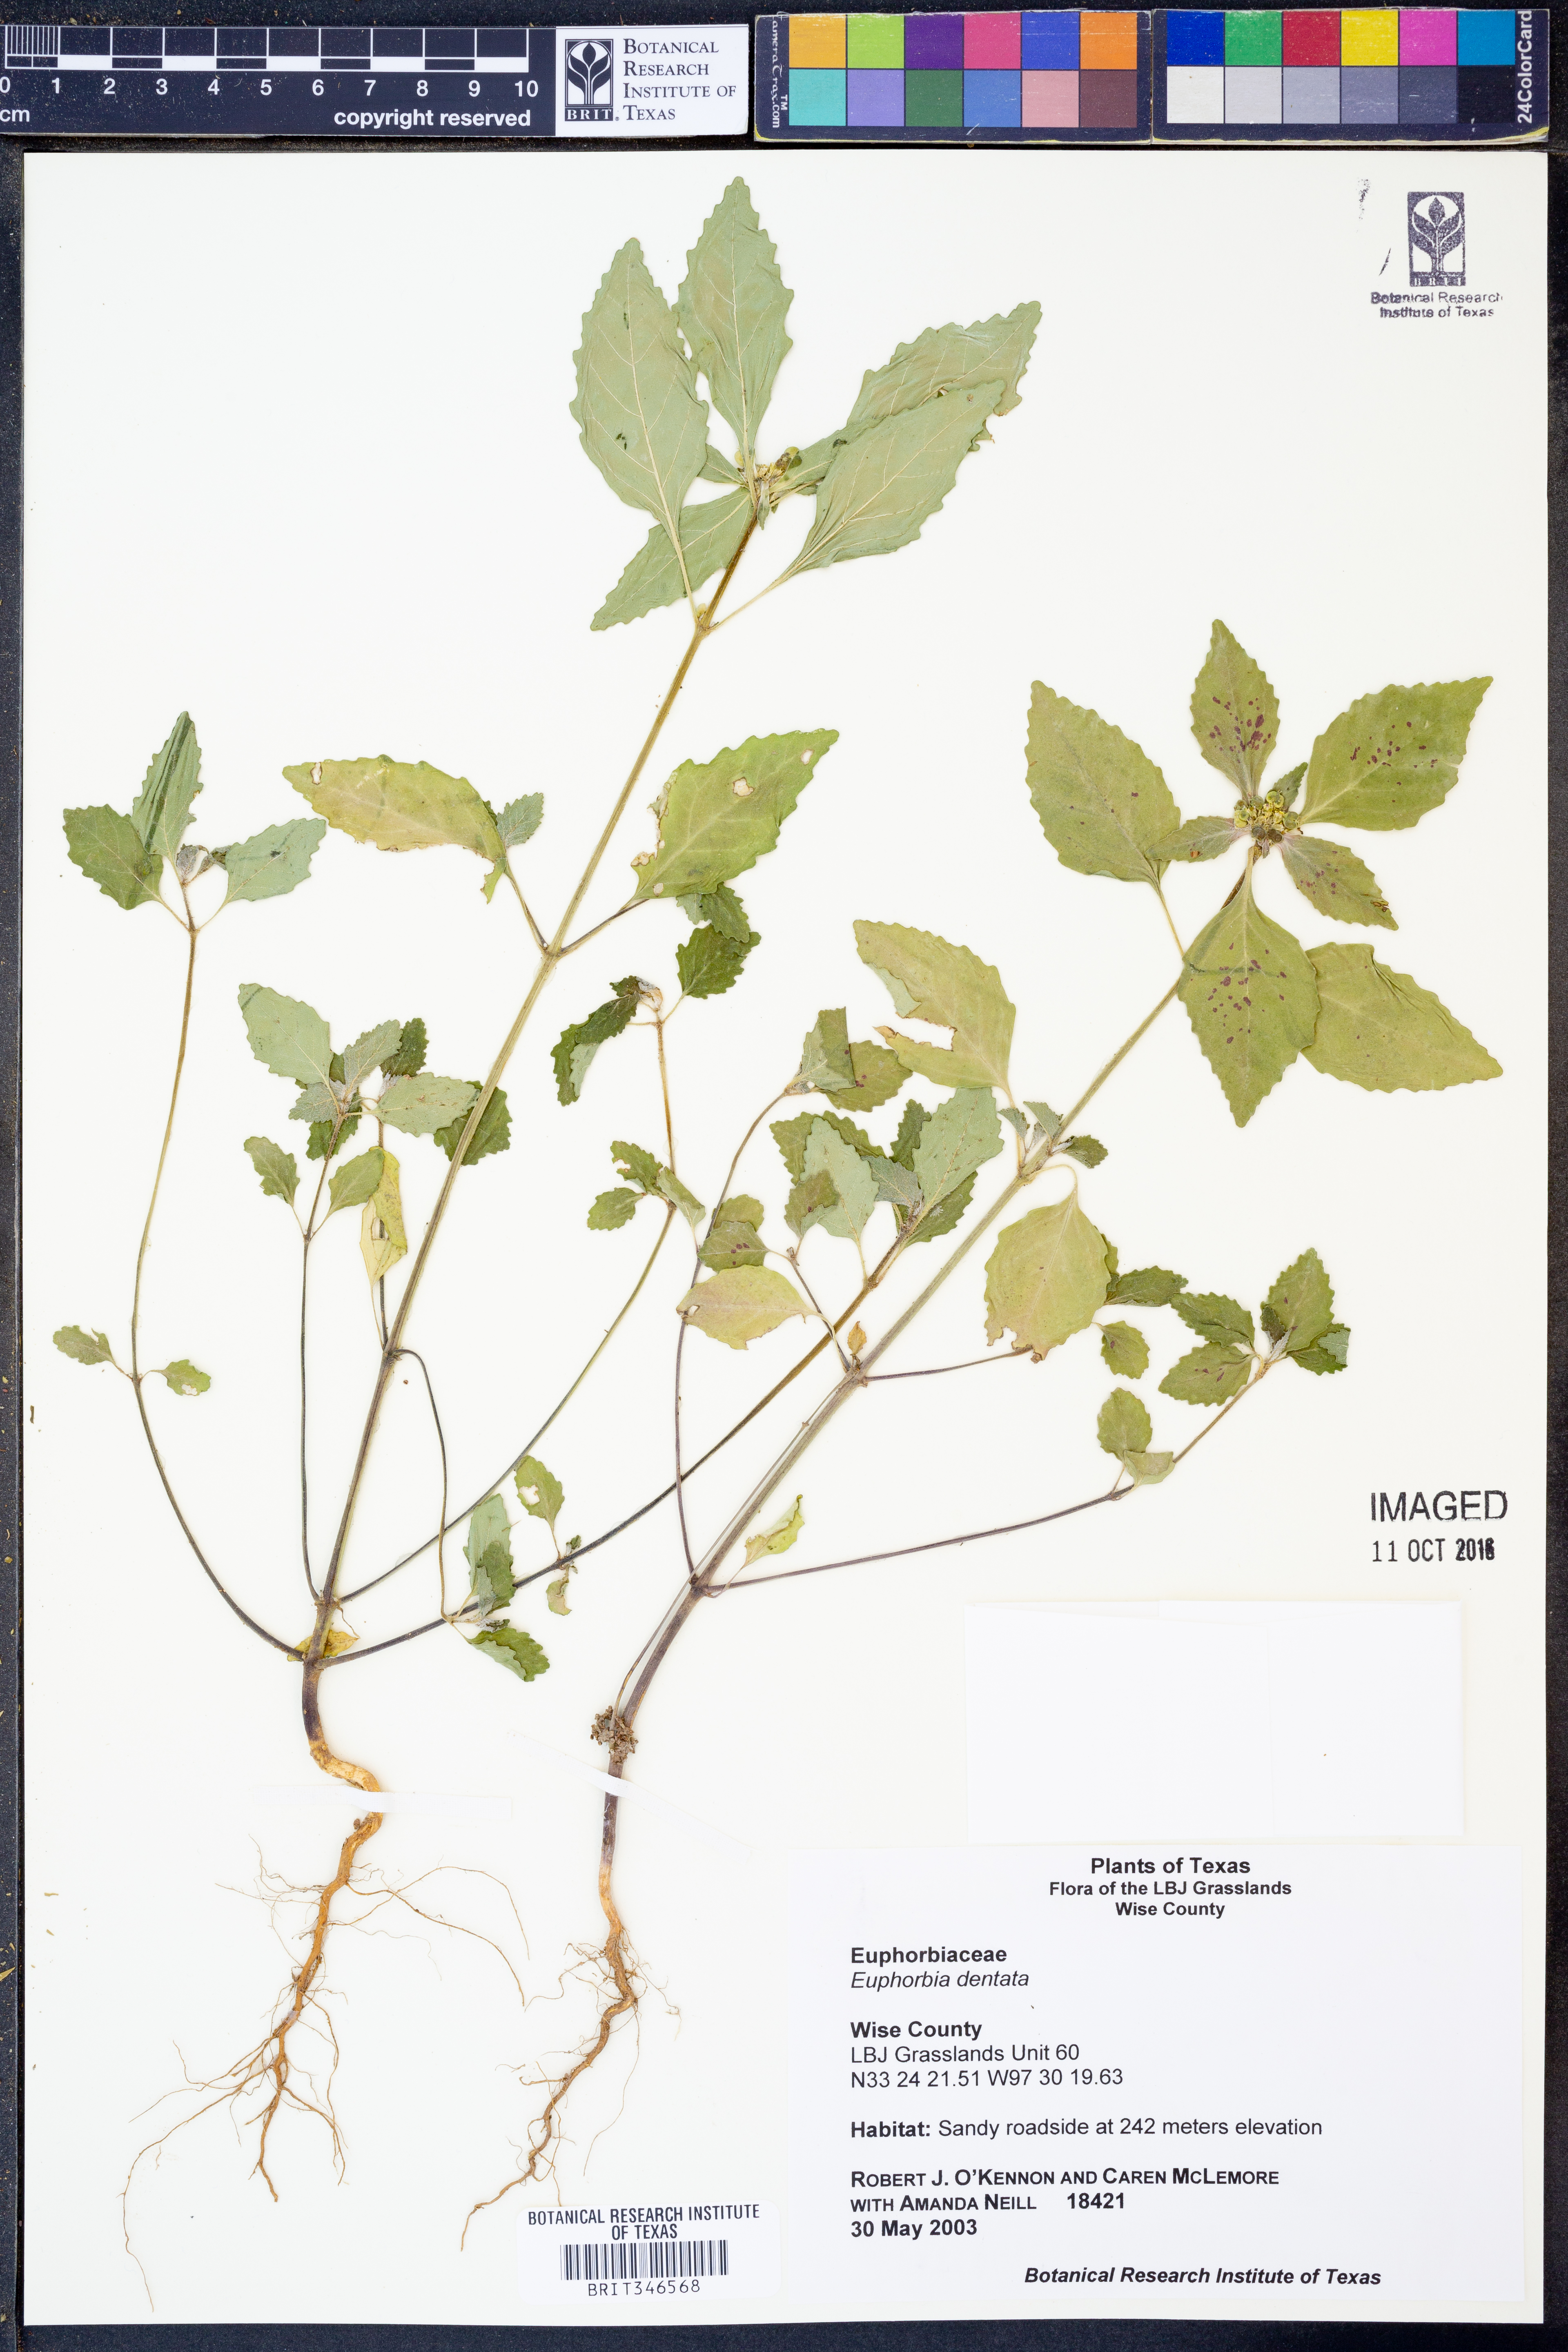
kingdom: Plantae
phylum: Tracheophyta
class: Magnoliopsida
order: Malpighiales
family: Euphorbiaceae
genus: Euphorbia
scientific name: Euphorbia dentata
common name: Dentate spurge
